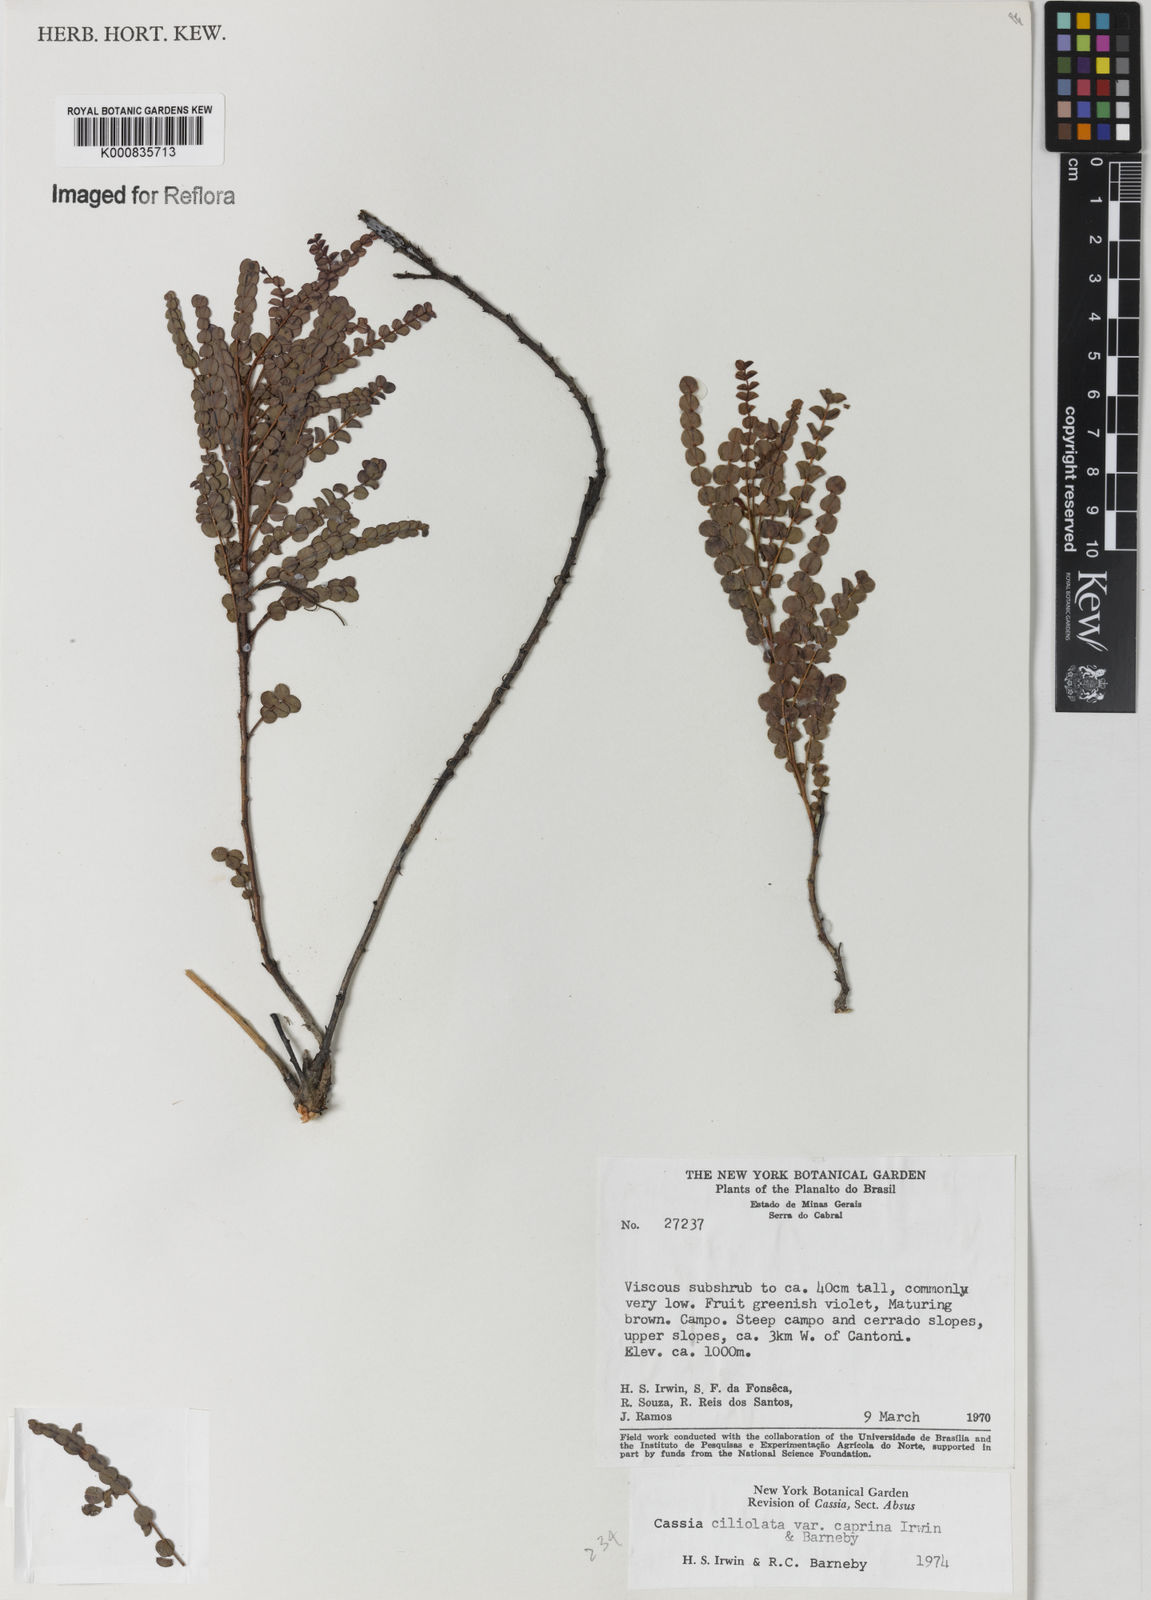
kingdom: Plantae
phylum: Tracheophyta
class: Magnoliopsida
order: Fabales
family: Fabaceae
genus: Chamaecrista
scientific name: Chamaecrista ciliolata
